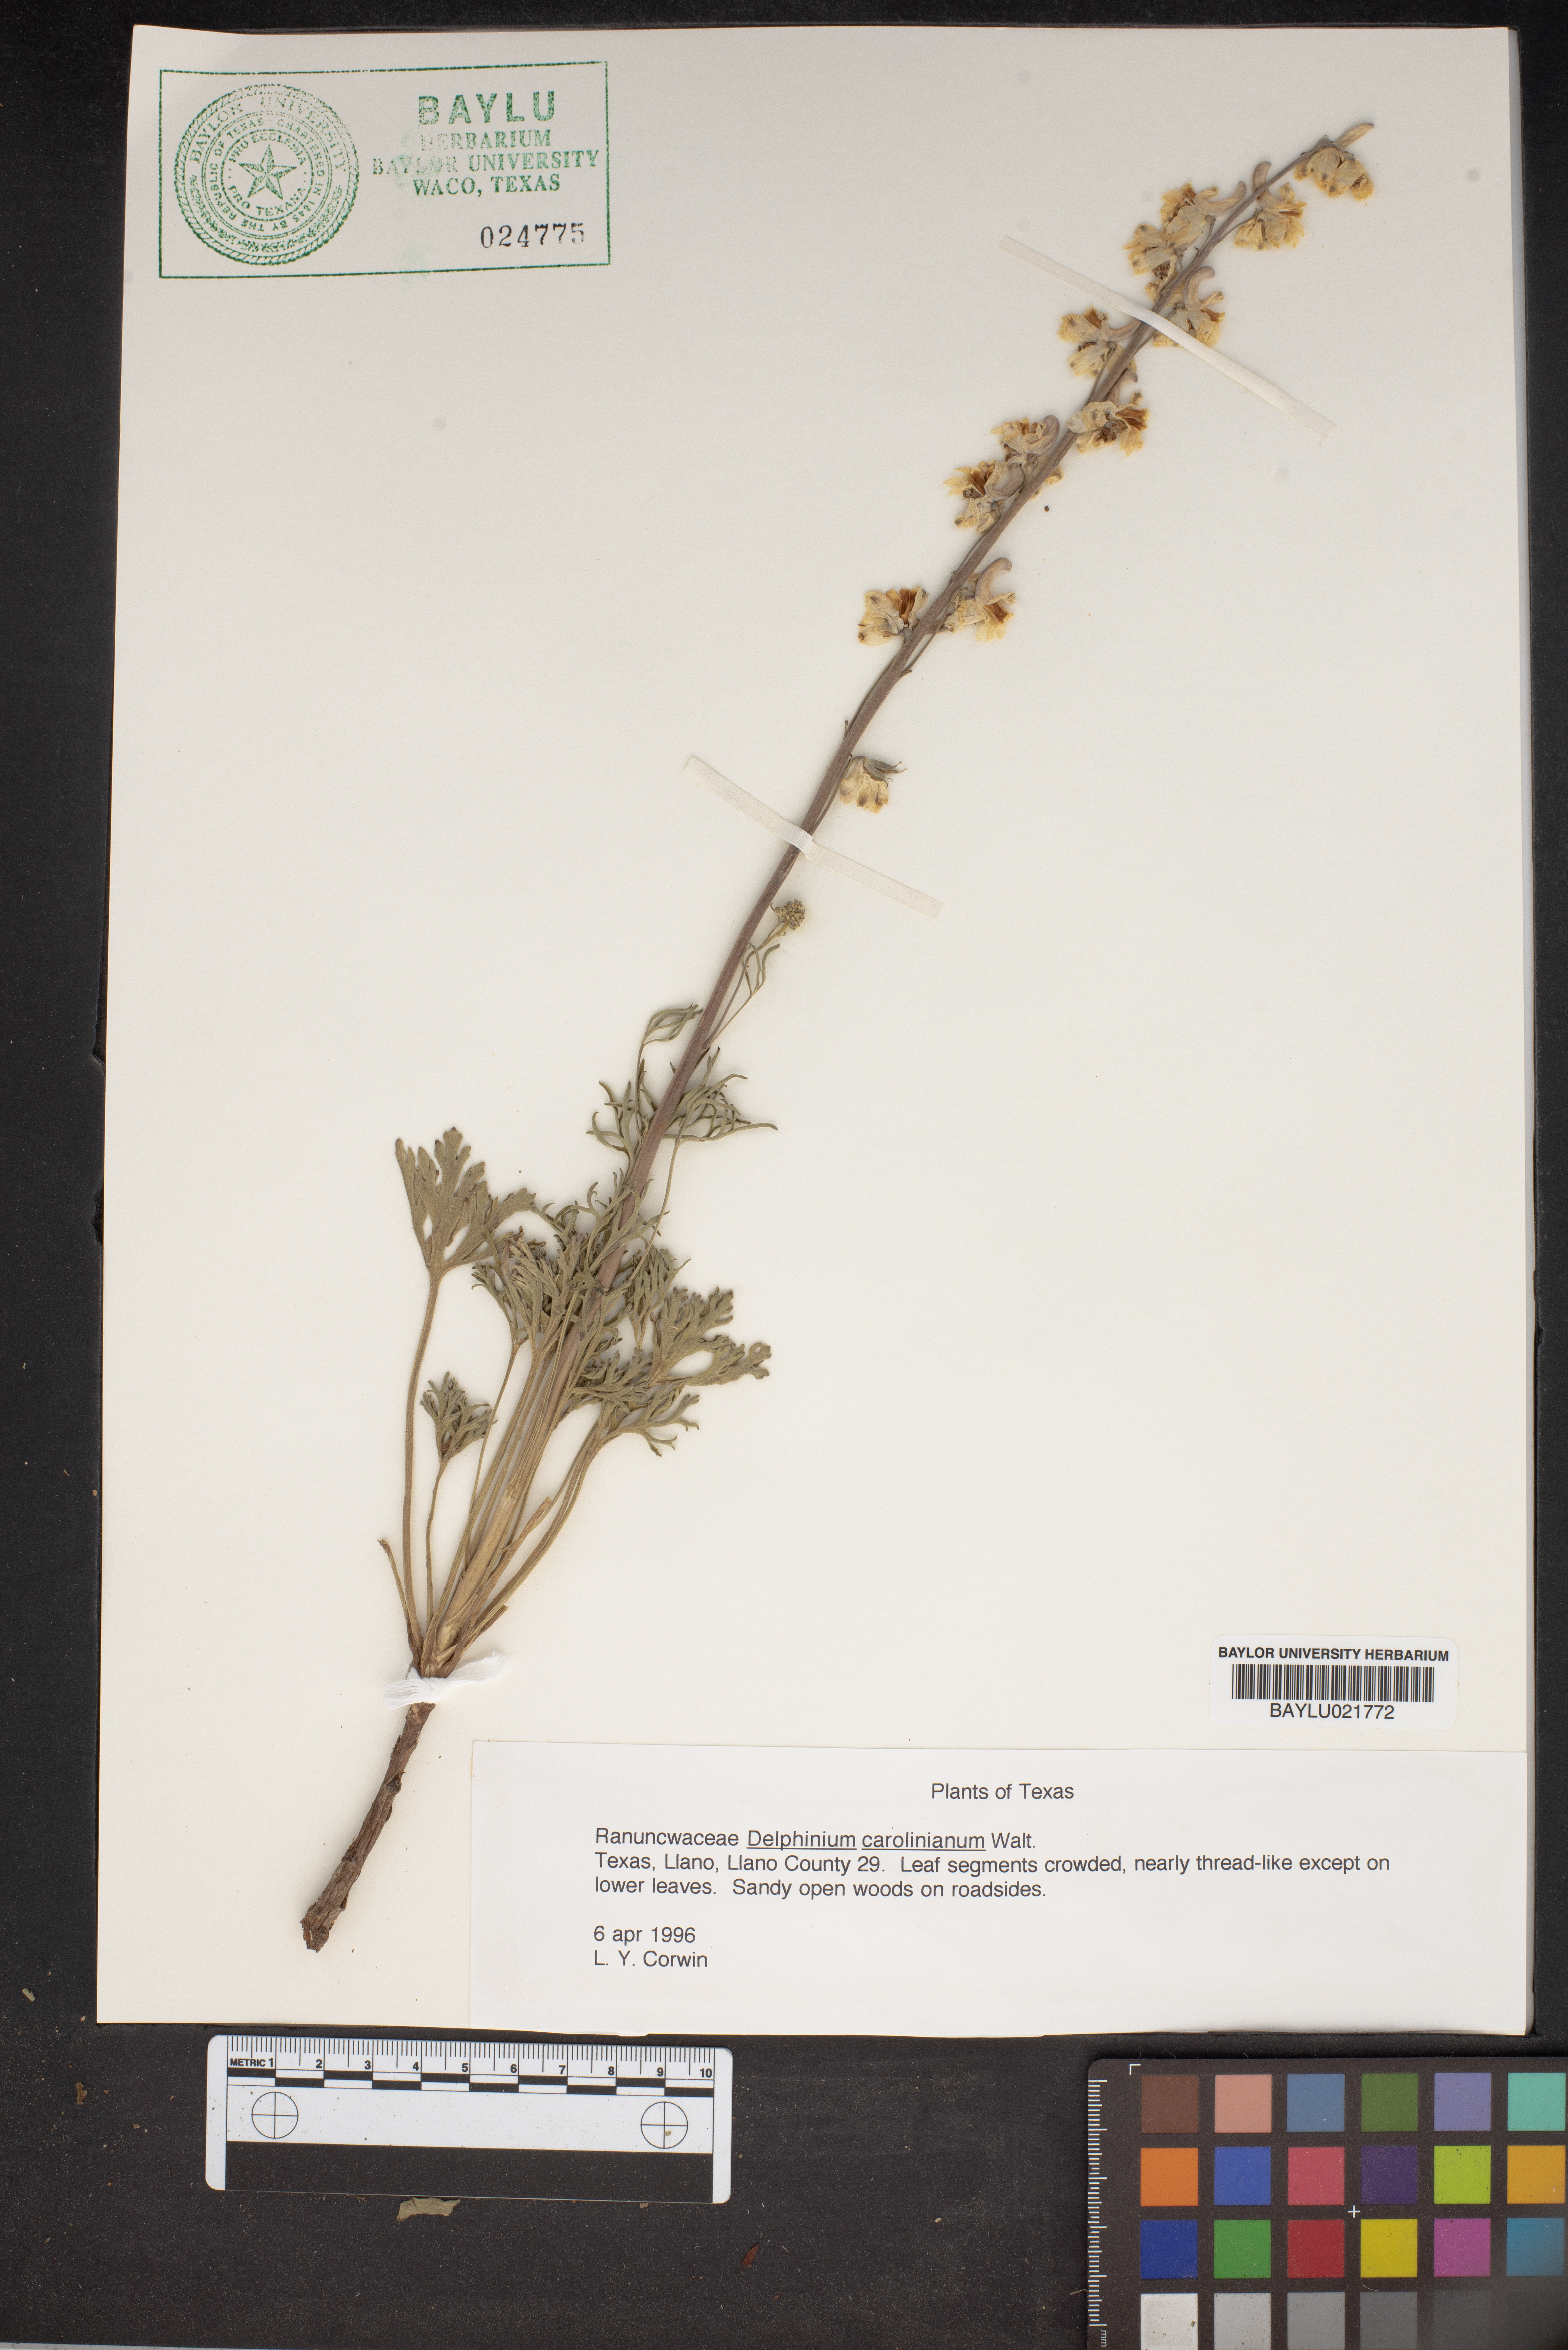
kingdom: Plantae
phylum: Tracheophyta
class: Magnoliopsida
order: Ranunculales
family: Ranunculaceae
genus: Delphinium
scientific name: Delphinium carolinianum
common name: Carolina larkspur
